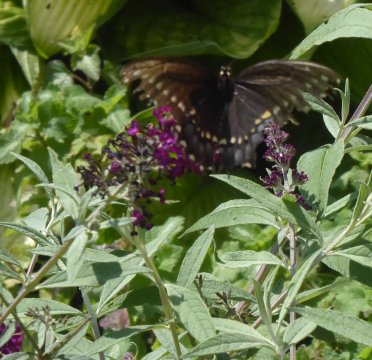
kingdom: Animalia
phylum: Arthropoda
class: Insecta
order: Lepidoptera
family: Papilionidae
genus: Papilio
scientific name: Papilio polyxenes
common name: Black Swallowtail
